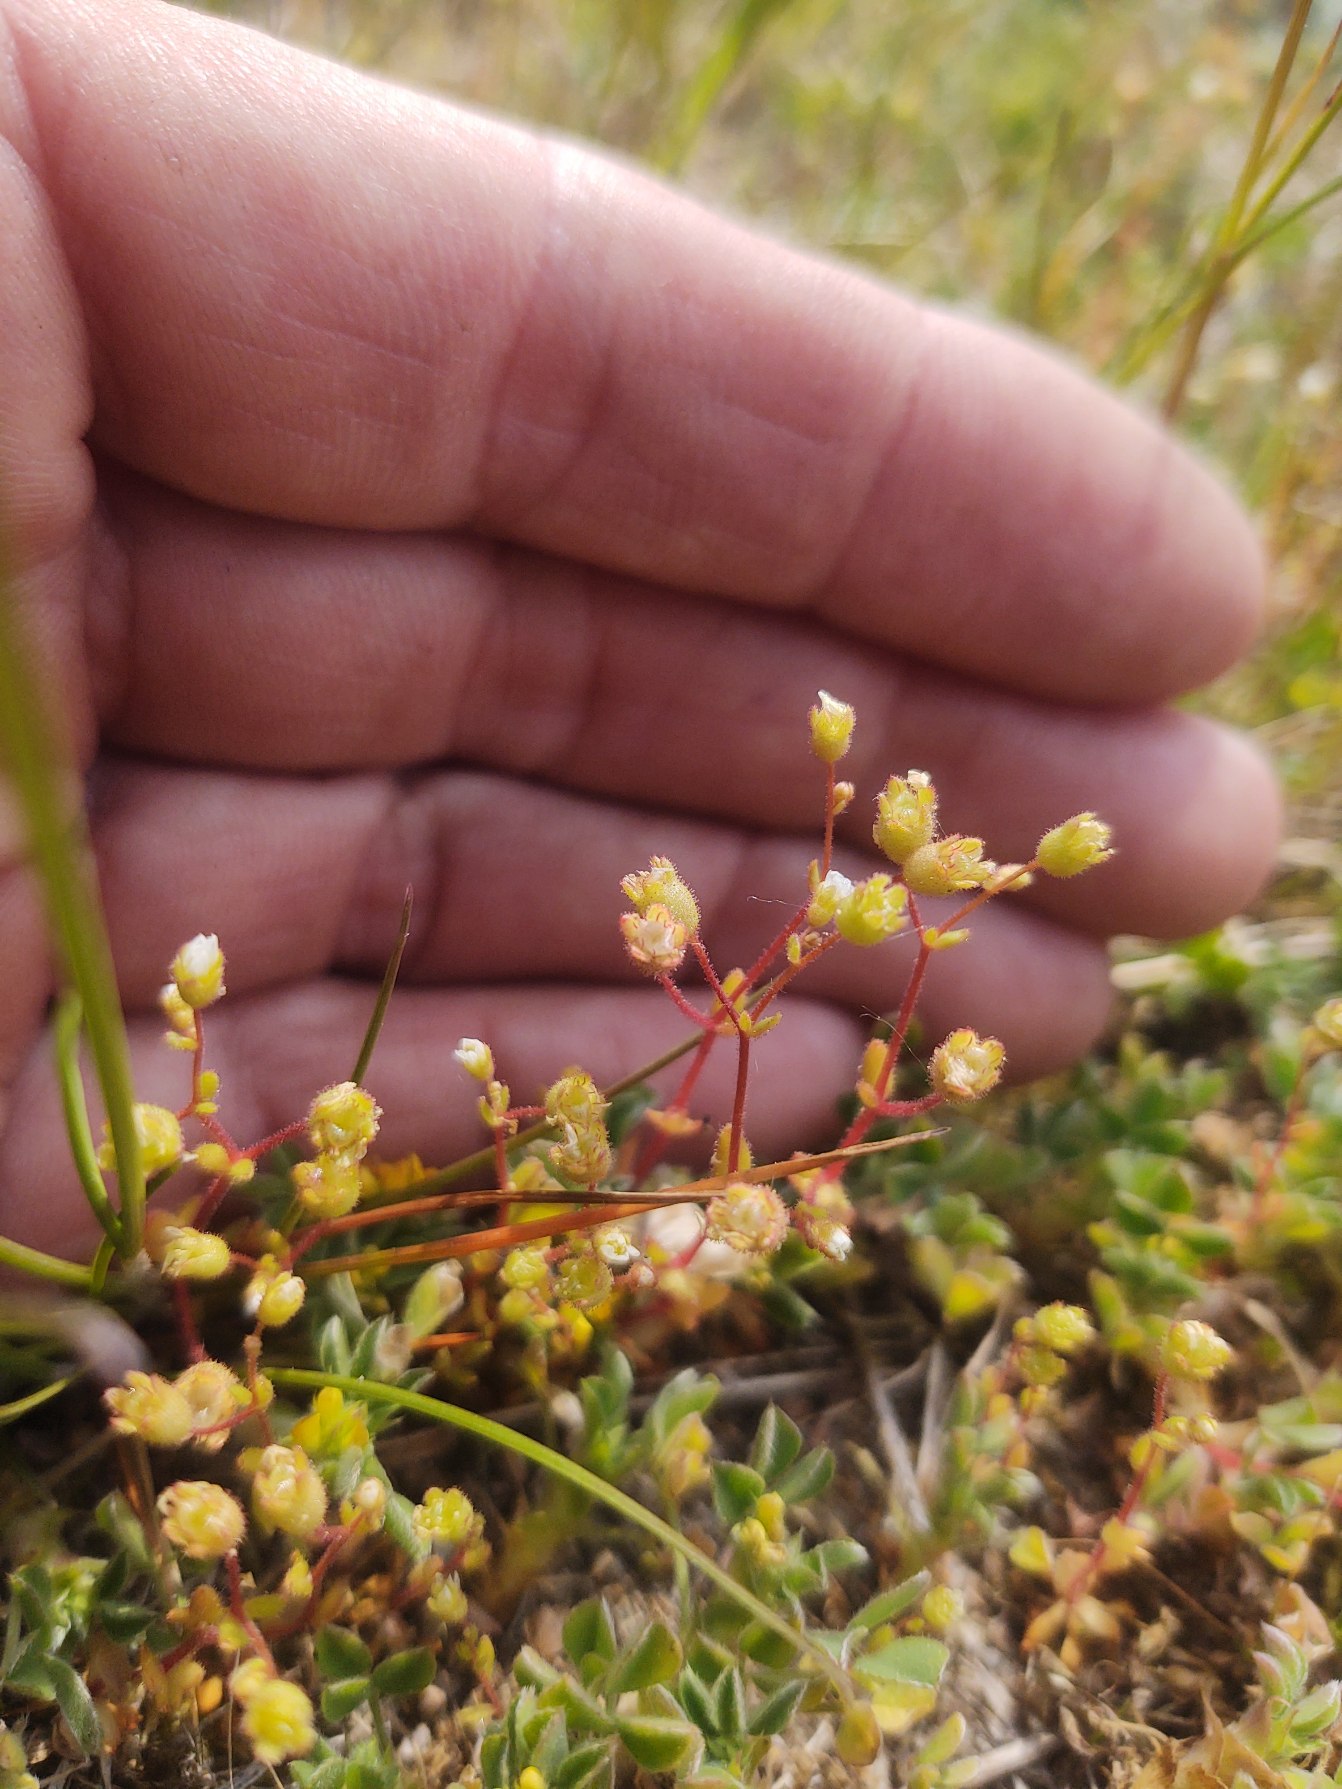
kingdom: Plantae
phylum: Tracheophyta
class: Magnoliopsida
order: Saxifragales
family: Saxifragaceae
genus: Saxifraga
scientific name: Saxifraga tridactylites
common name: Trekløft-stenbræk
